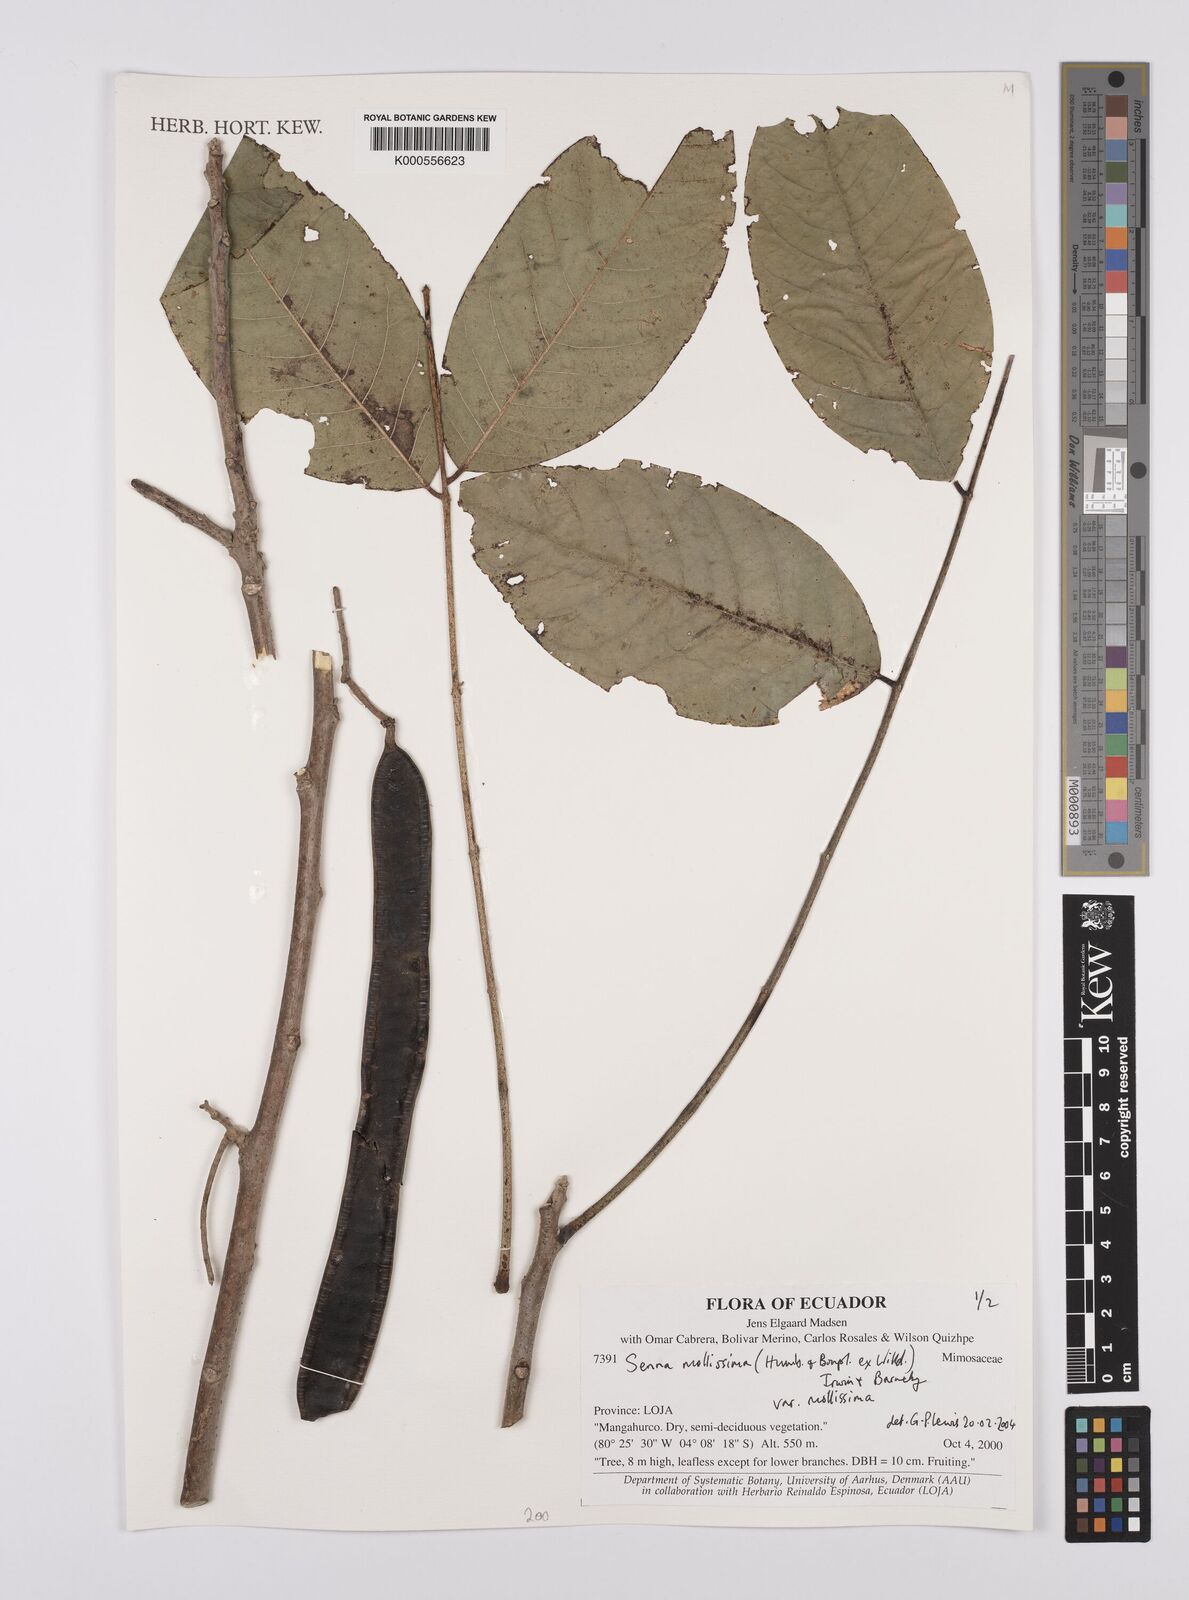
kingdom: Plantae
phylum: Tracheophyta
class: Magnoliopsida
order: Fabales
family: Fabaceae
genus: Senna
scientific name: Senna mollissima
